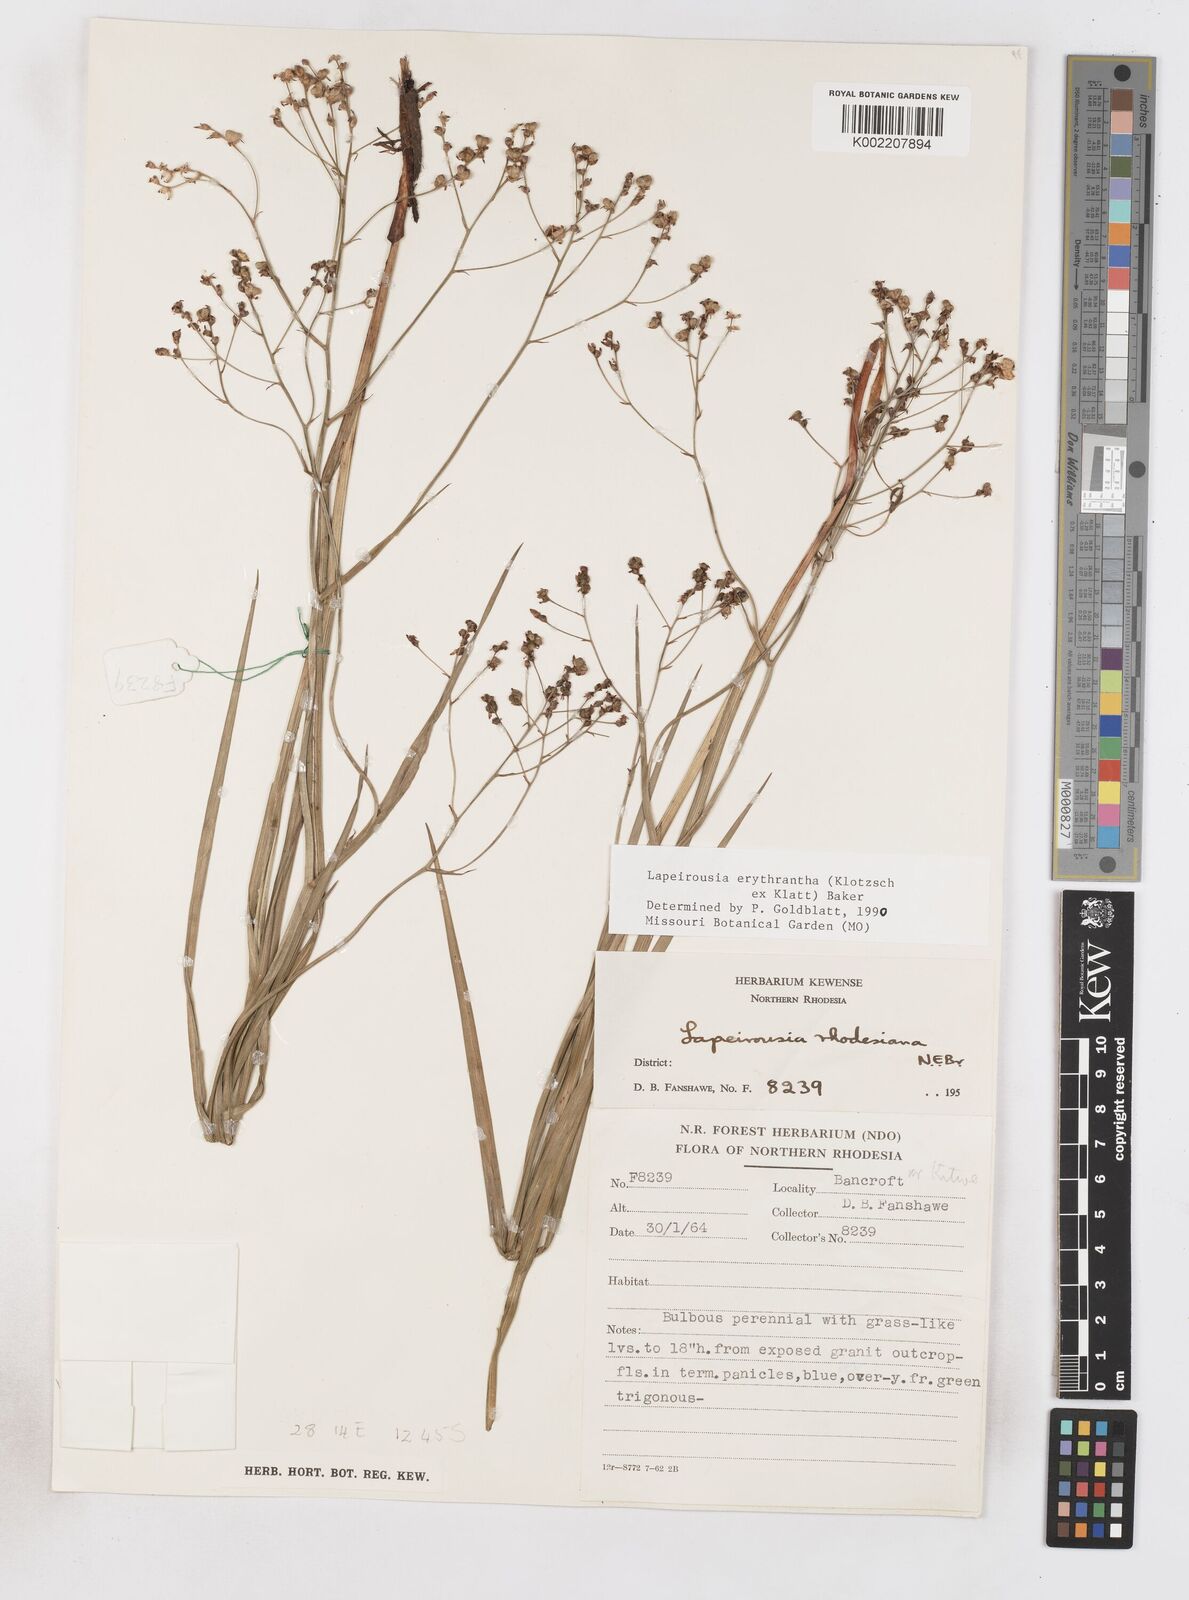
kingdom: Plantae
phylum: Tracheophyta
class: Liliopsida
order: Asparagales
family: Iridaceae
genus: Afrosolen
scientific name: Afrosolen erythranthus
